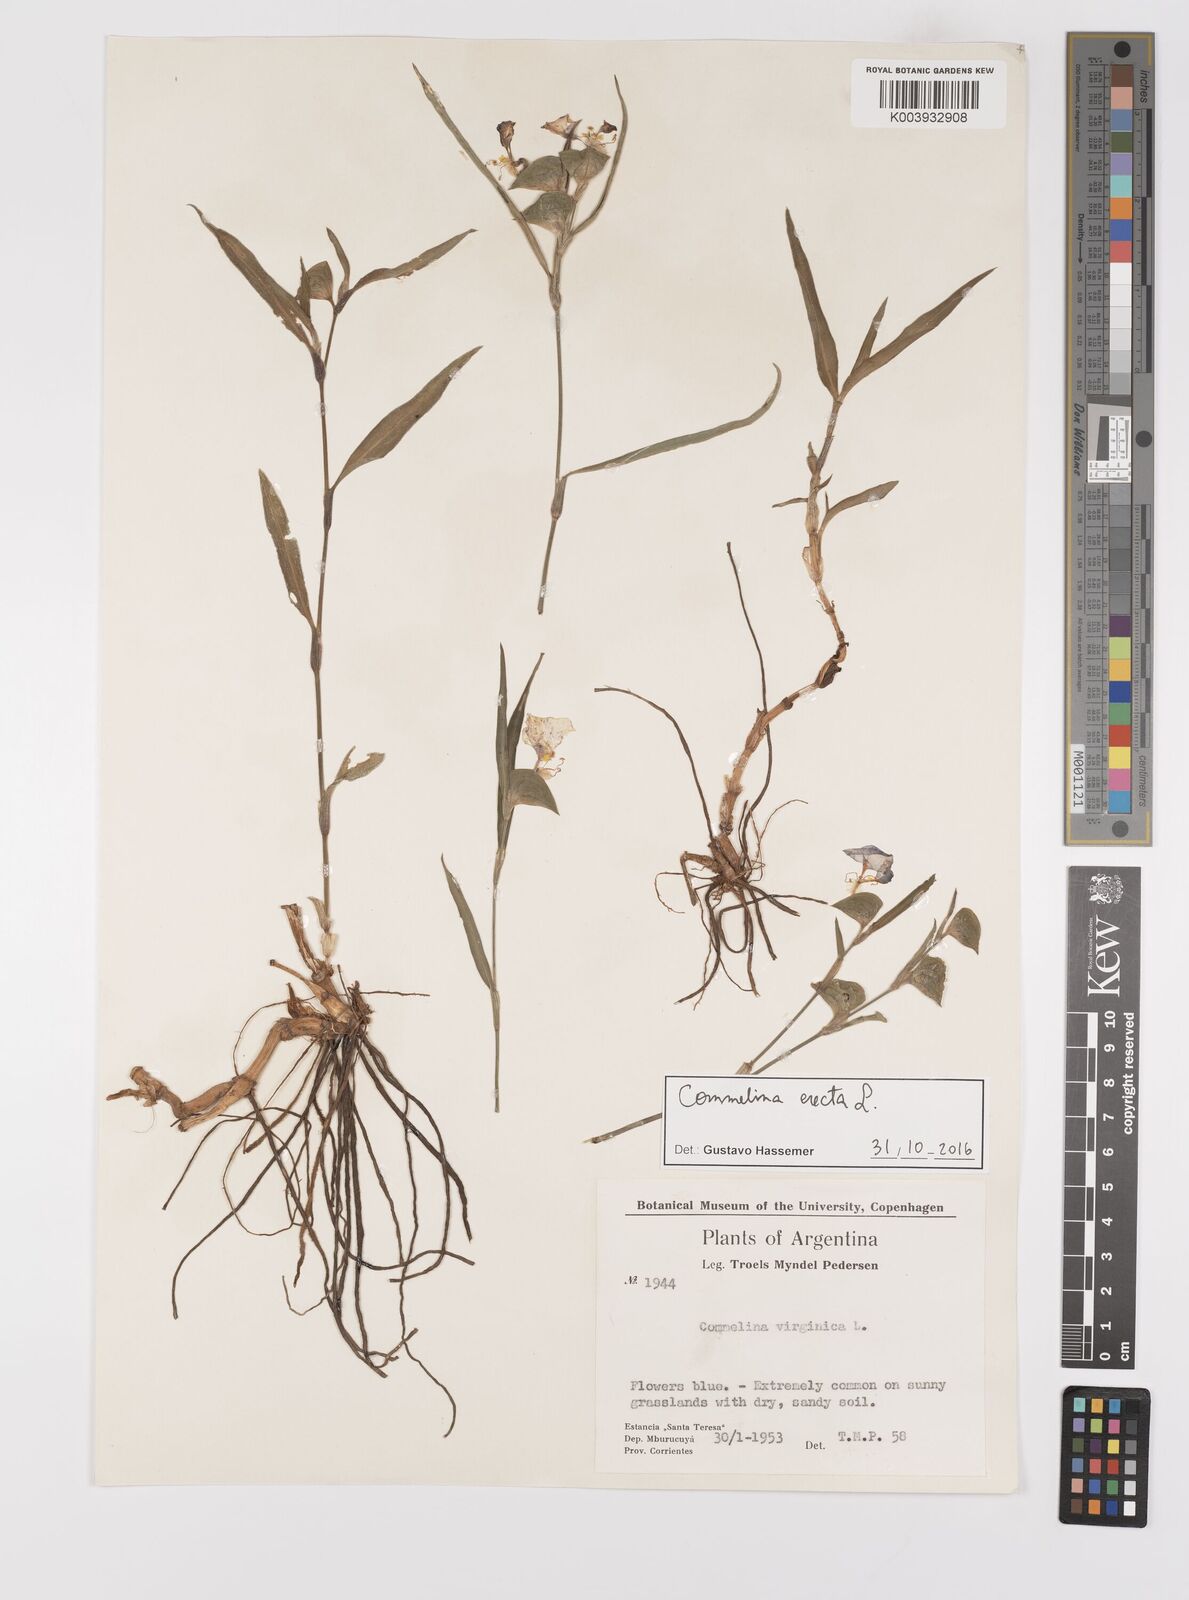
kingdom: Plantae
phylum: Tracheophyta
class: Liliopsida
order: Commelinales
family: Commelinaceae
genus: Commelina
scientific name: Commelina erecta
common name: Blousel blommetjie
